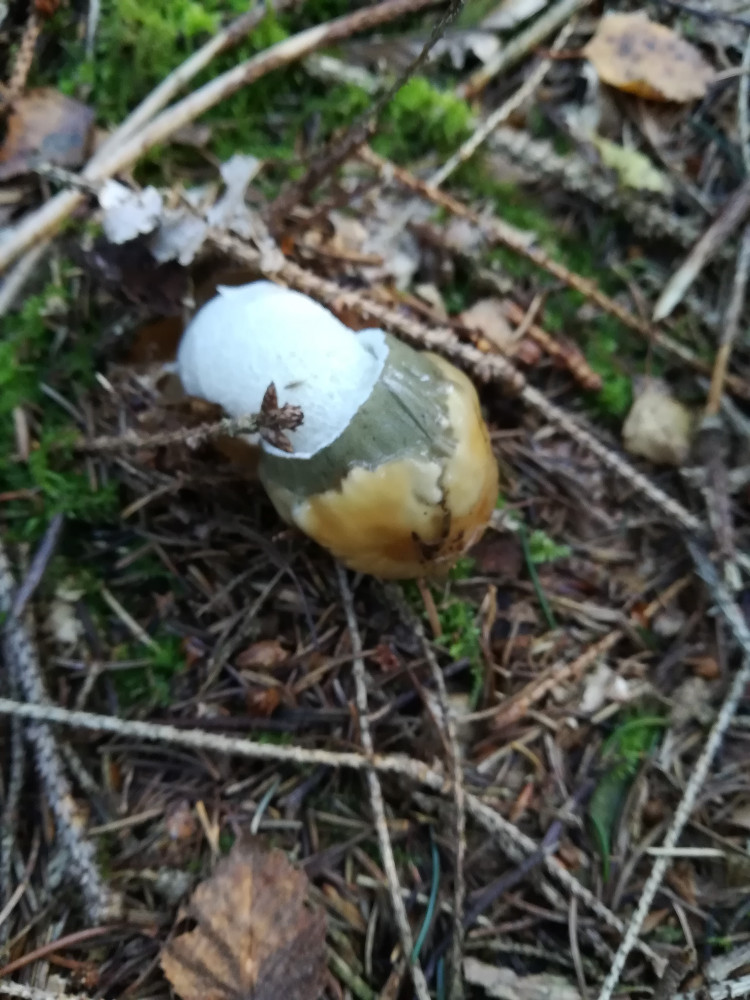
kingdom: Fungi
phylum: Basidiomycota
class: Agaricomycetes
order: Phallales
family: Phallaceae
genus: Phallus
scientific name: Phallus impudicus
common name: almindelig stinksvamp
